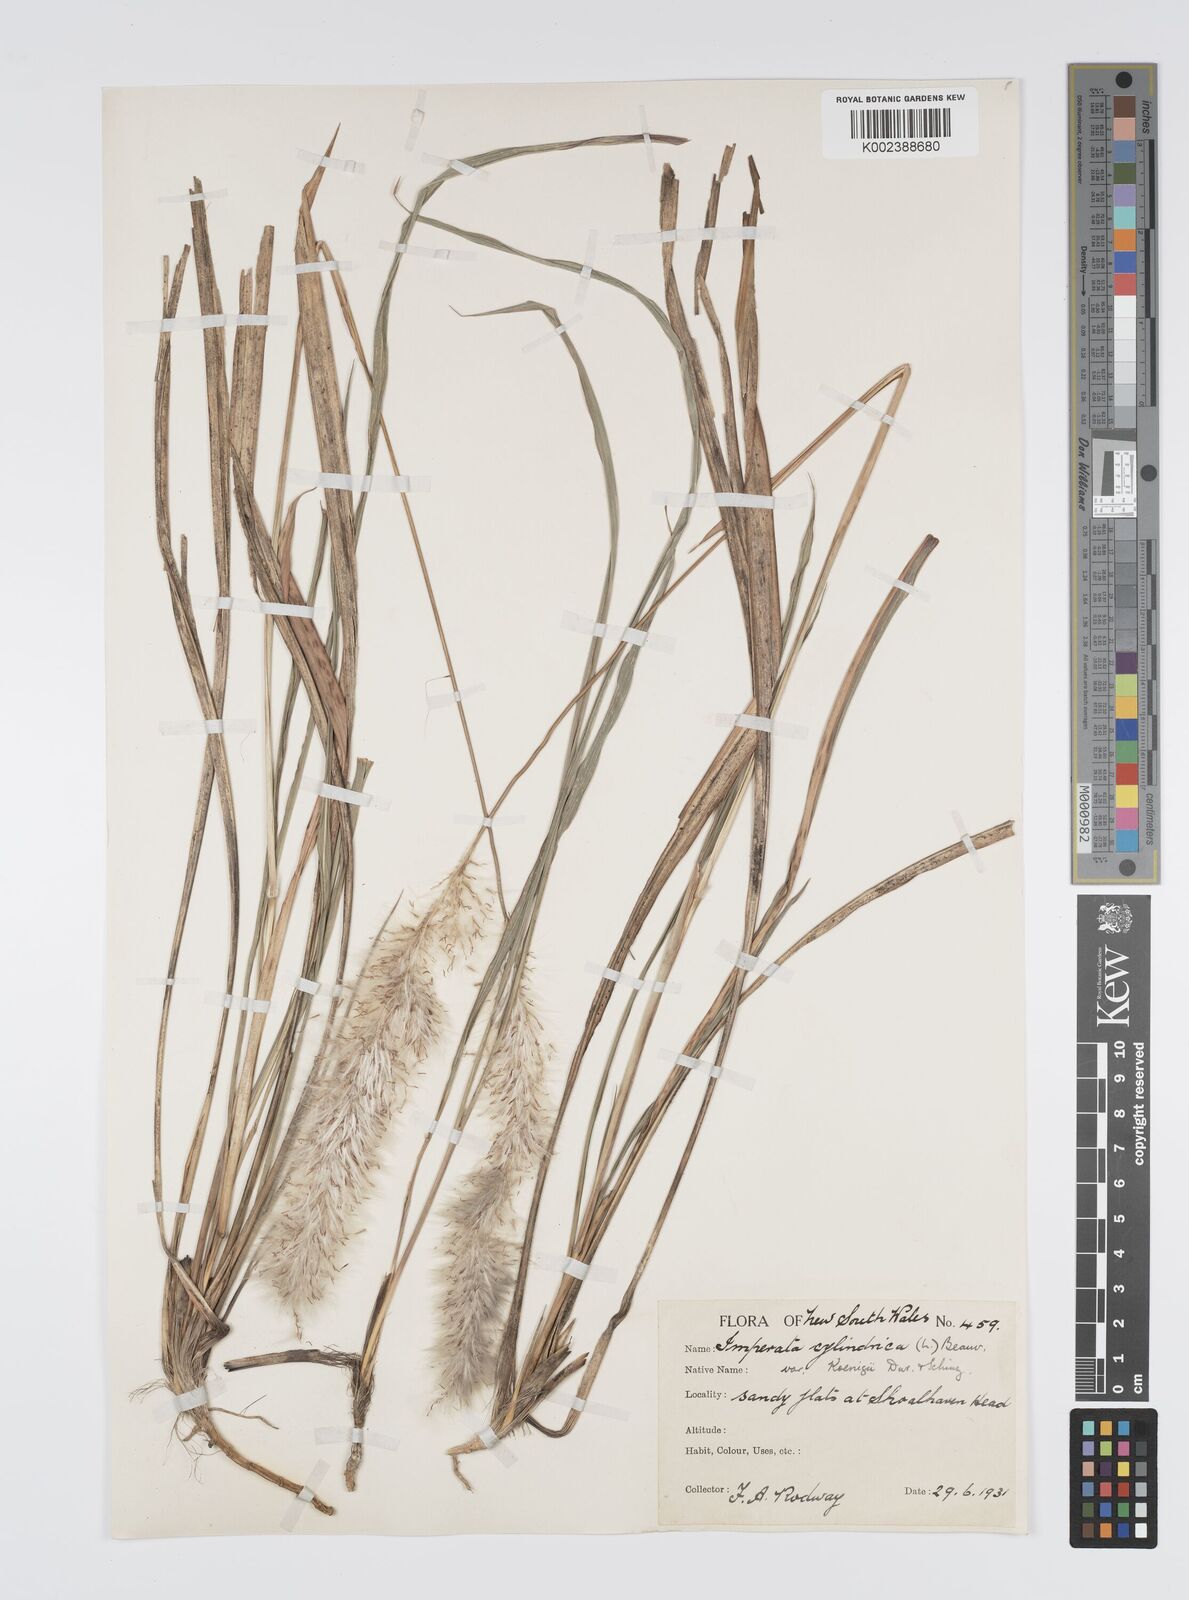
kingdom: Plantae
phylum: Tracheophyta
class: Liliopsida
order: Poales
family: Poaceae
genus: Imperata
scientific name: Imperata cylindrica
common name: Cogongrass
